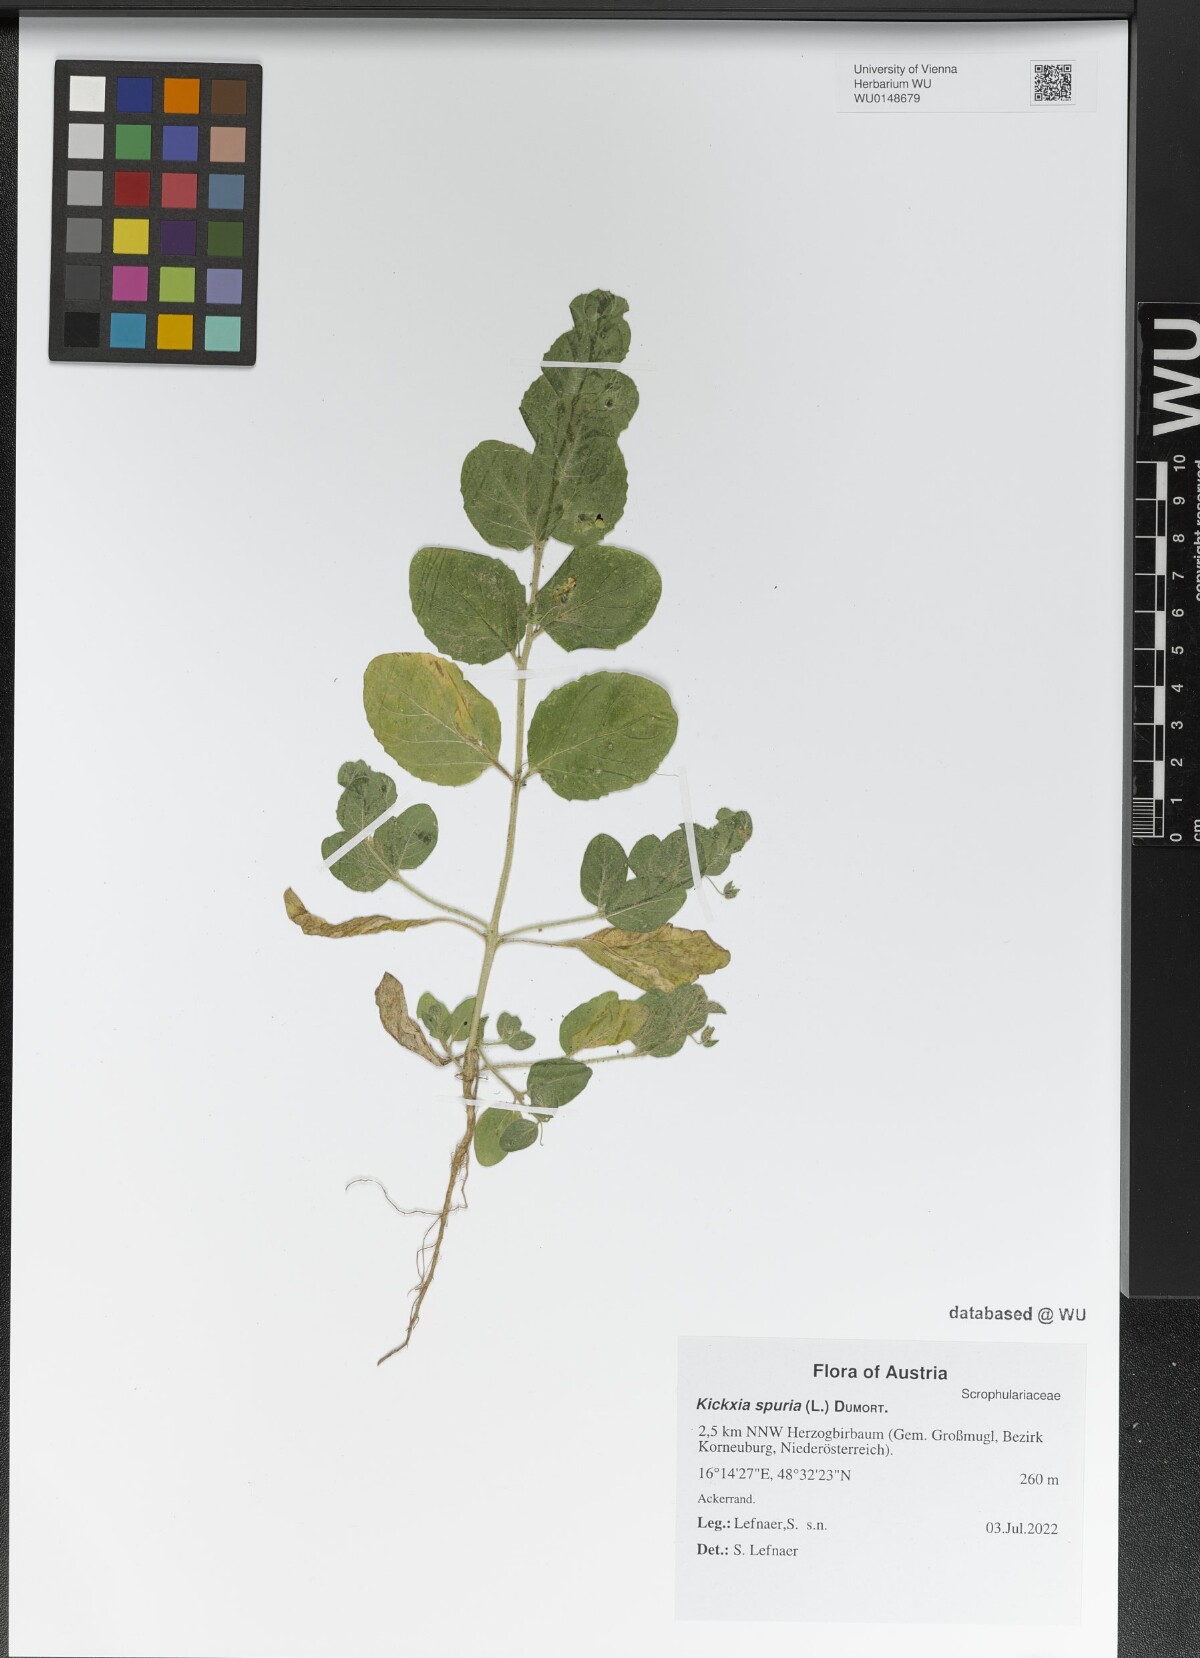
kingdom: Plantae
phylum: Tracheophyta
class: Magnoliopsida
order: Lamiales
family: Plantaginaceae
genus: Kickxia
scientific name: Kickxia spuria
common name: Round-leaved fluellen
